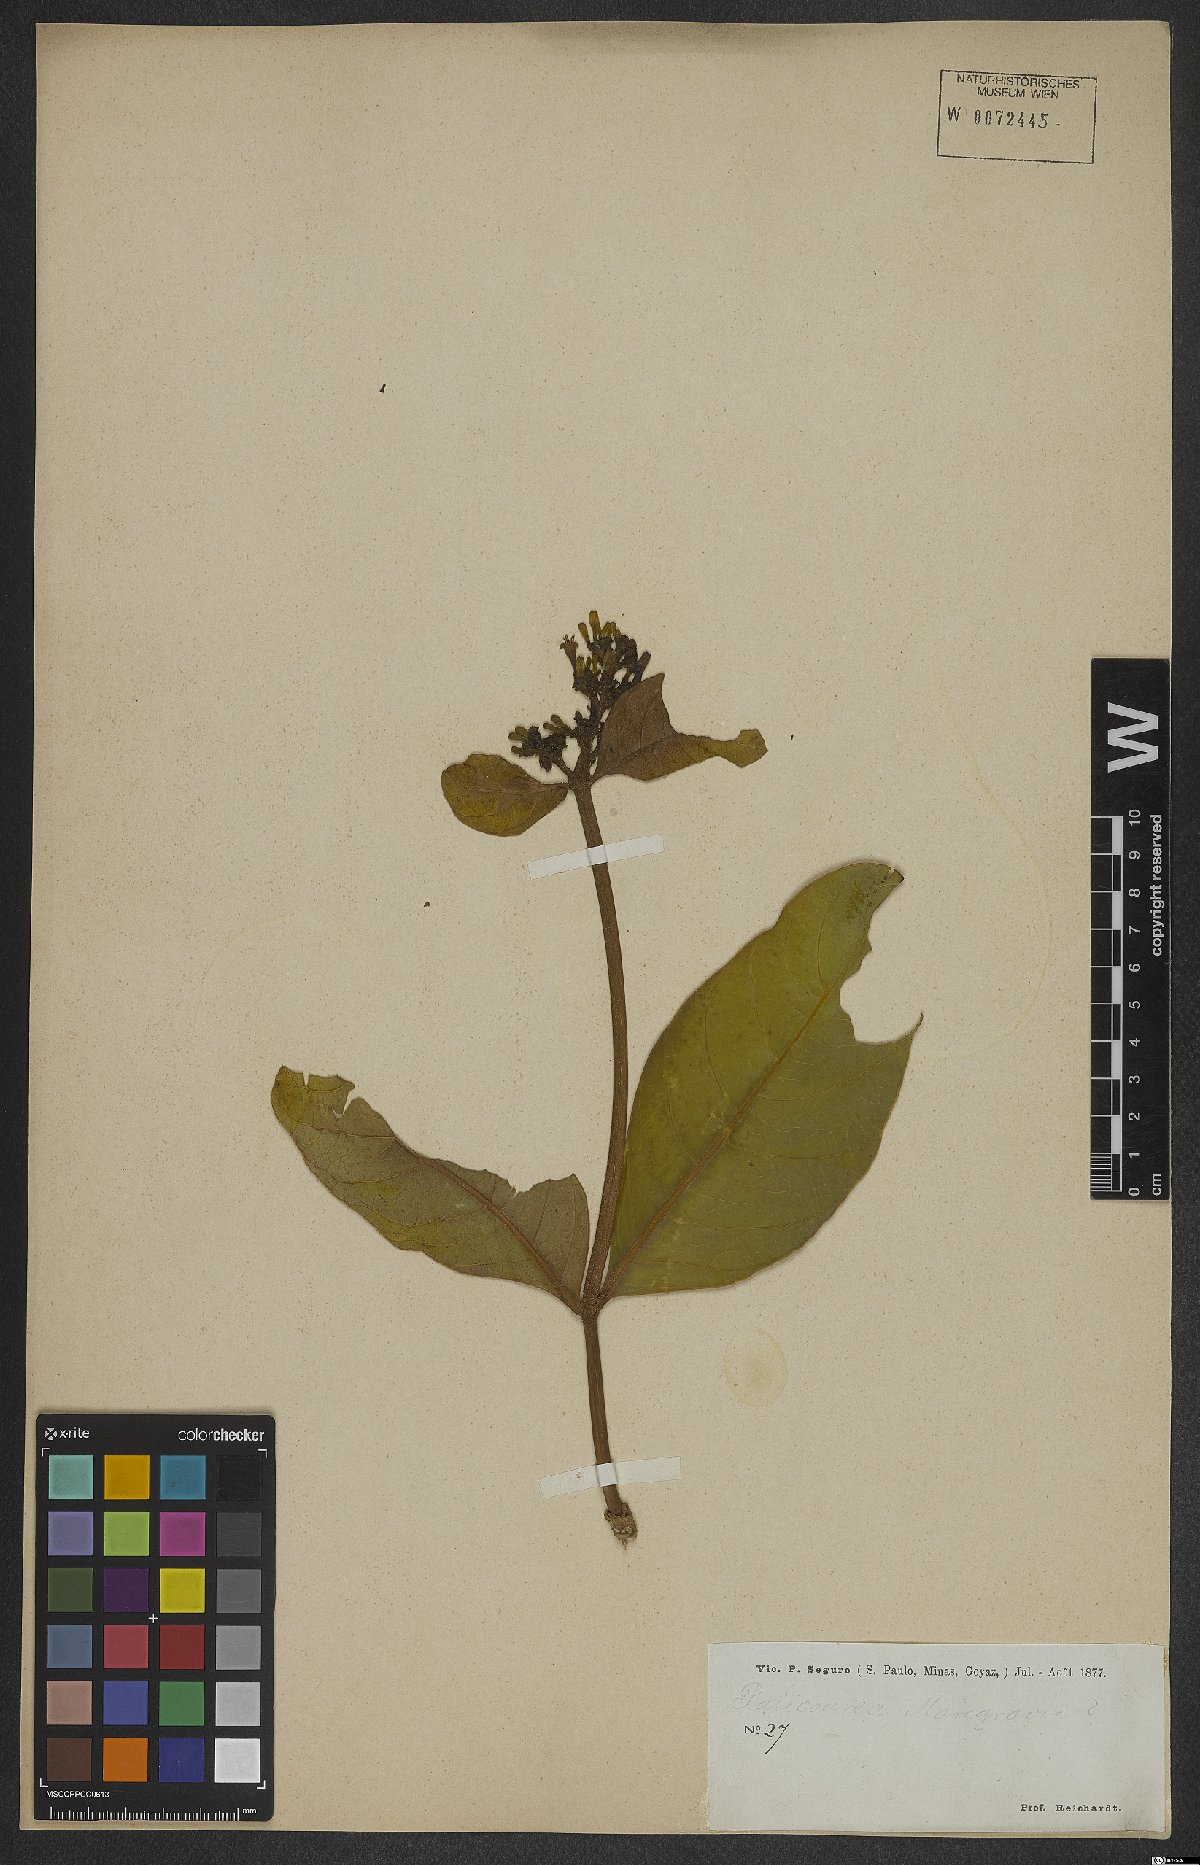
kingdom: Plantae
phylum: Tracheophyta
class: Magnoliopsida
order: Gentianales
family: Rubiaceae
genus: Palicourea
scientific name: Palicourea marcgravii
